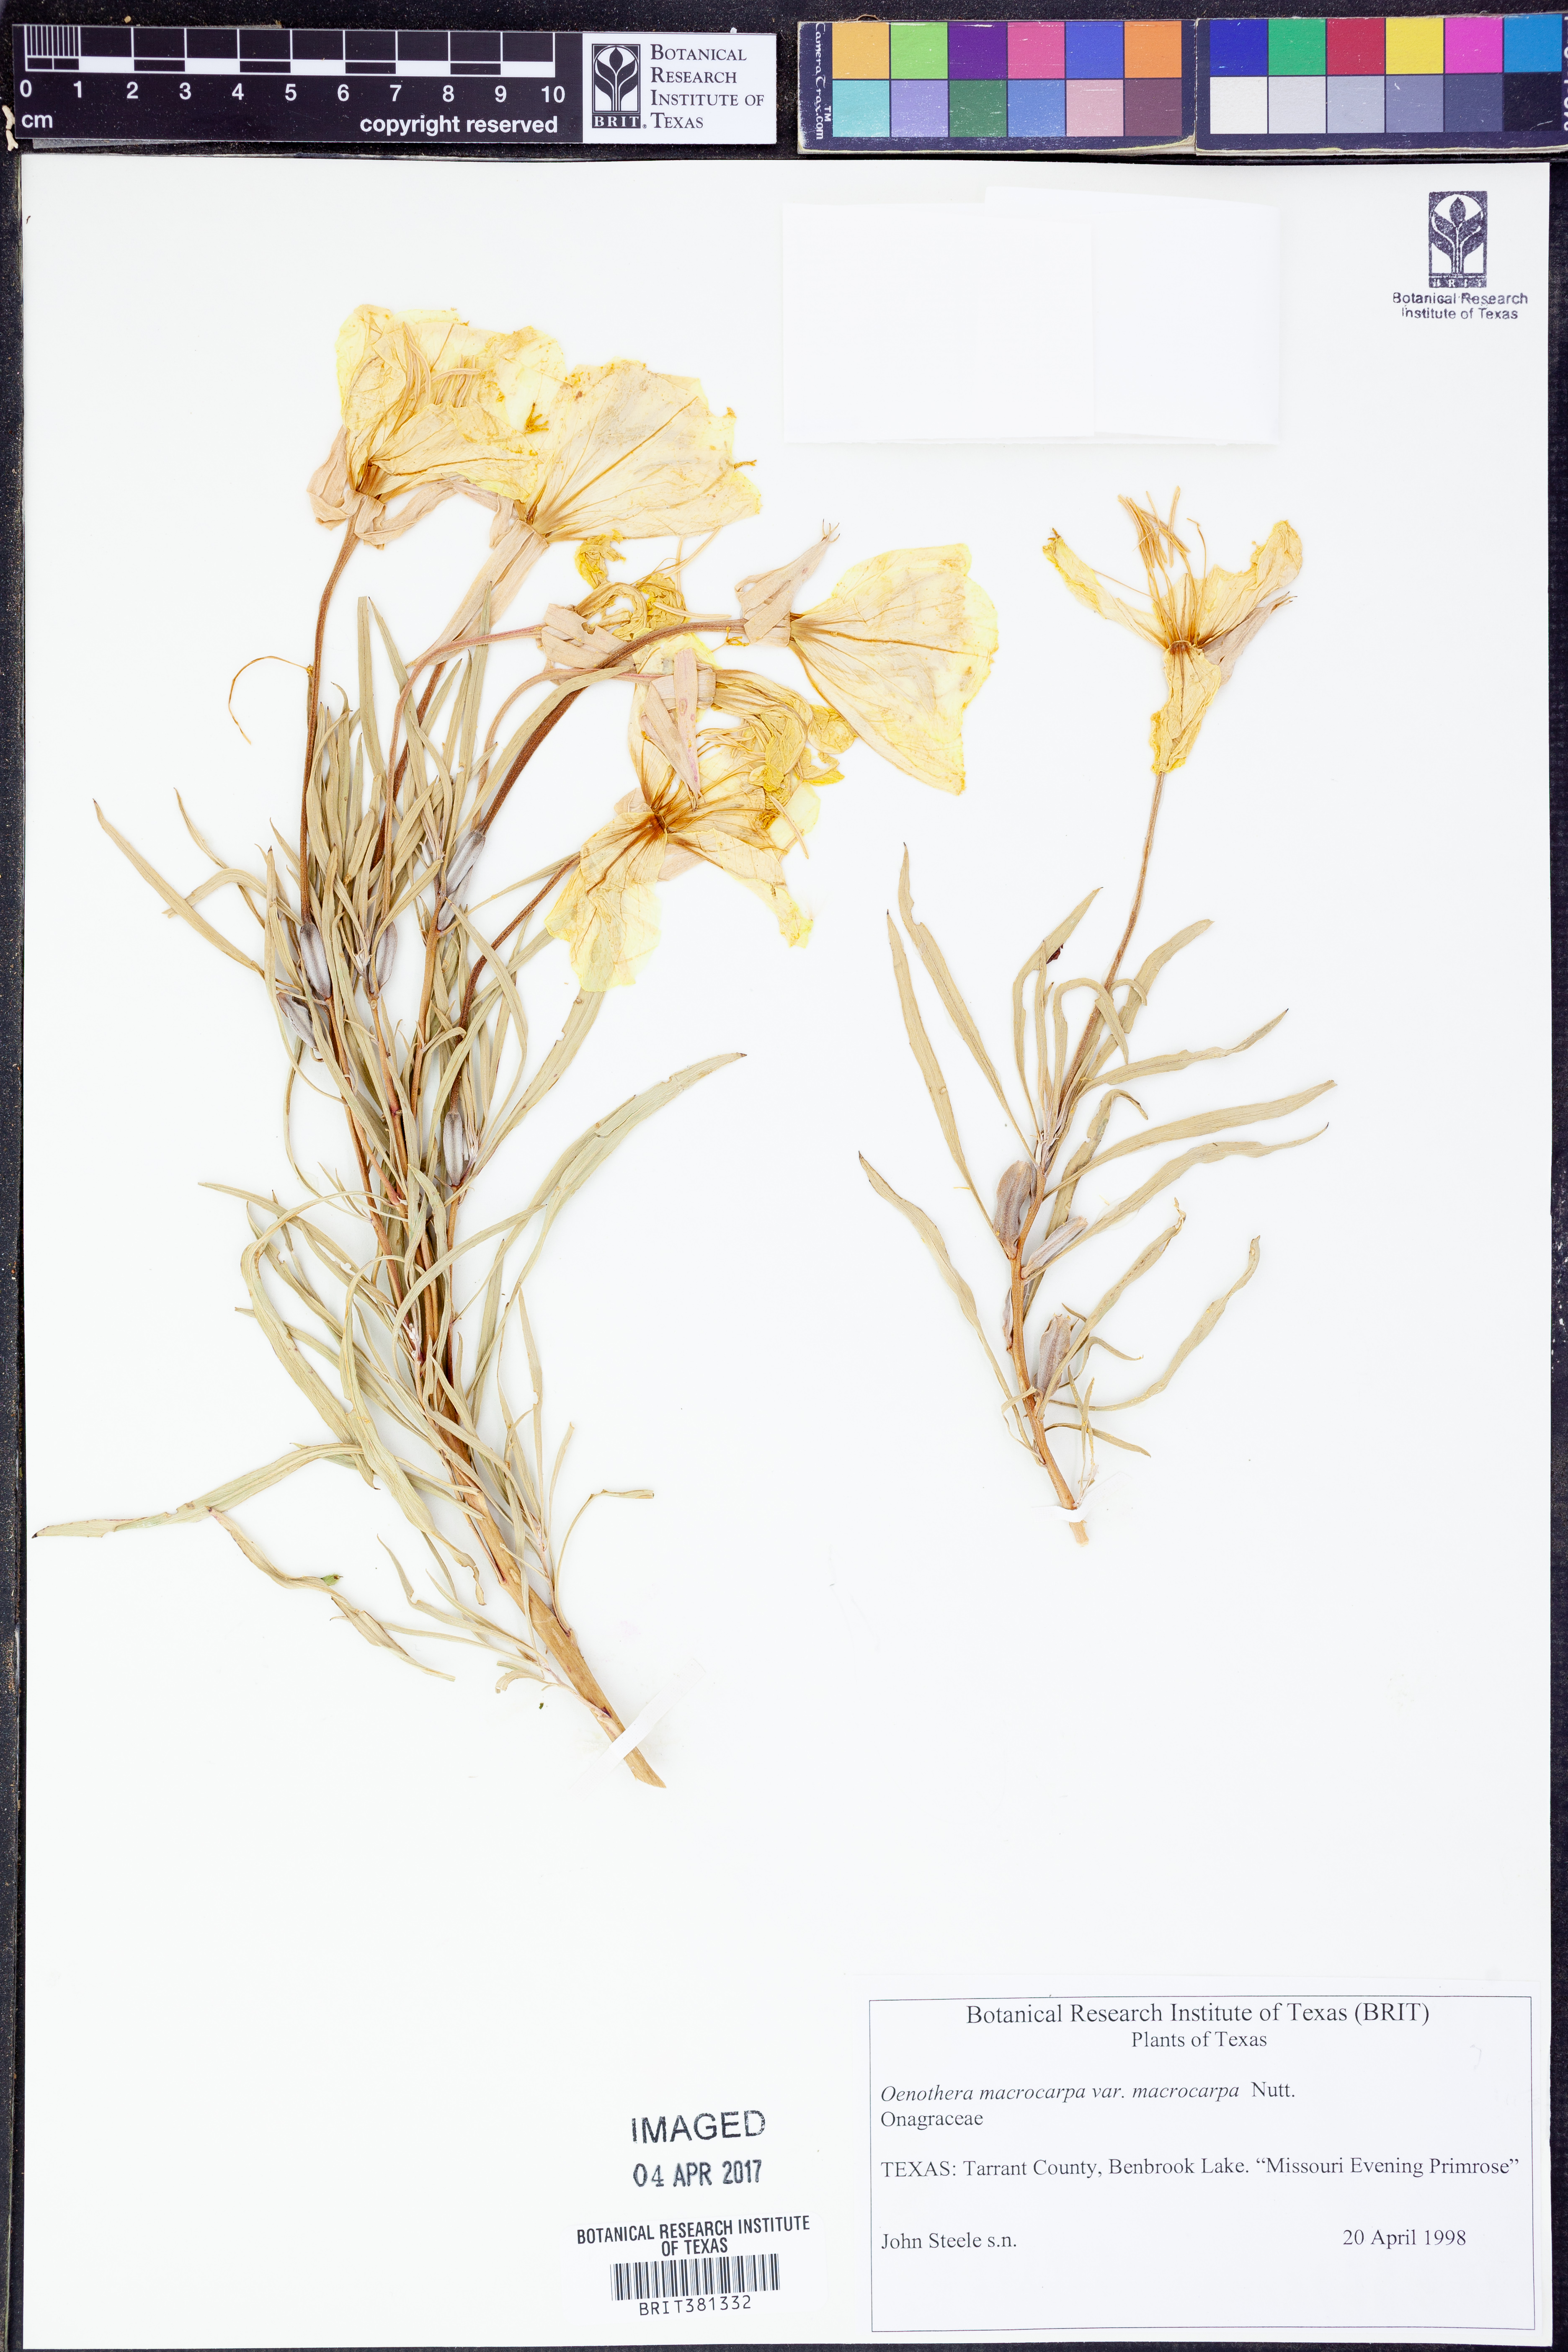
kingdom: Plantae
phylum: Tracheophyta
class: Magnoliopsida
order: Myrtales
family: Onagraceae
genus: Oenothera
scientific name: Oenothera macrocarpa
